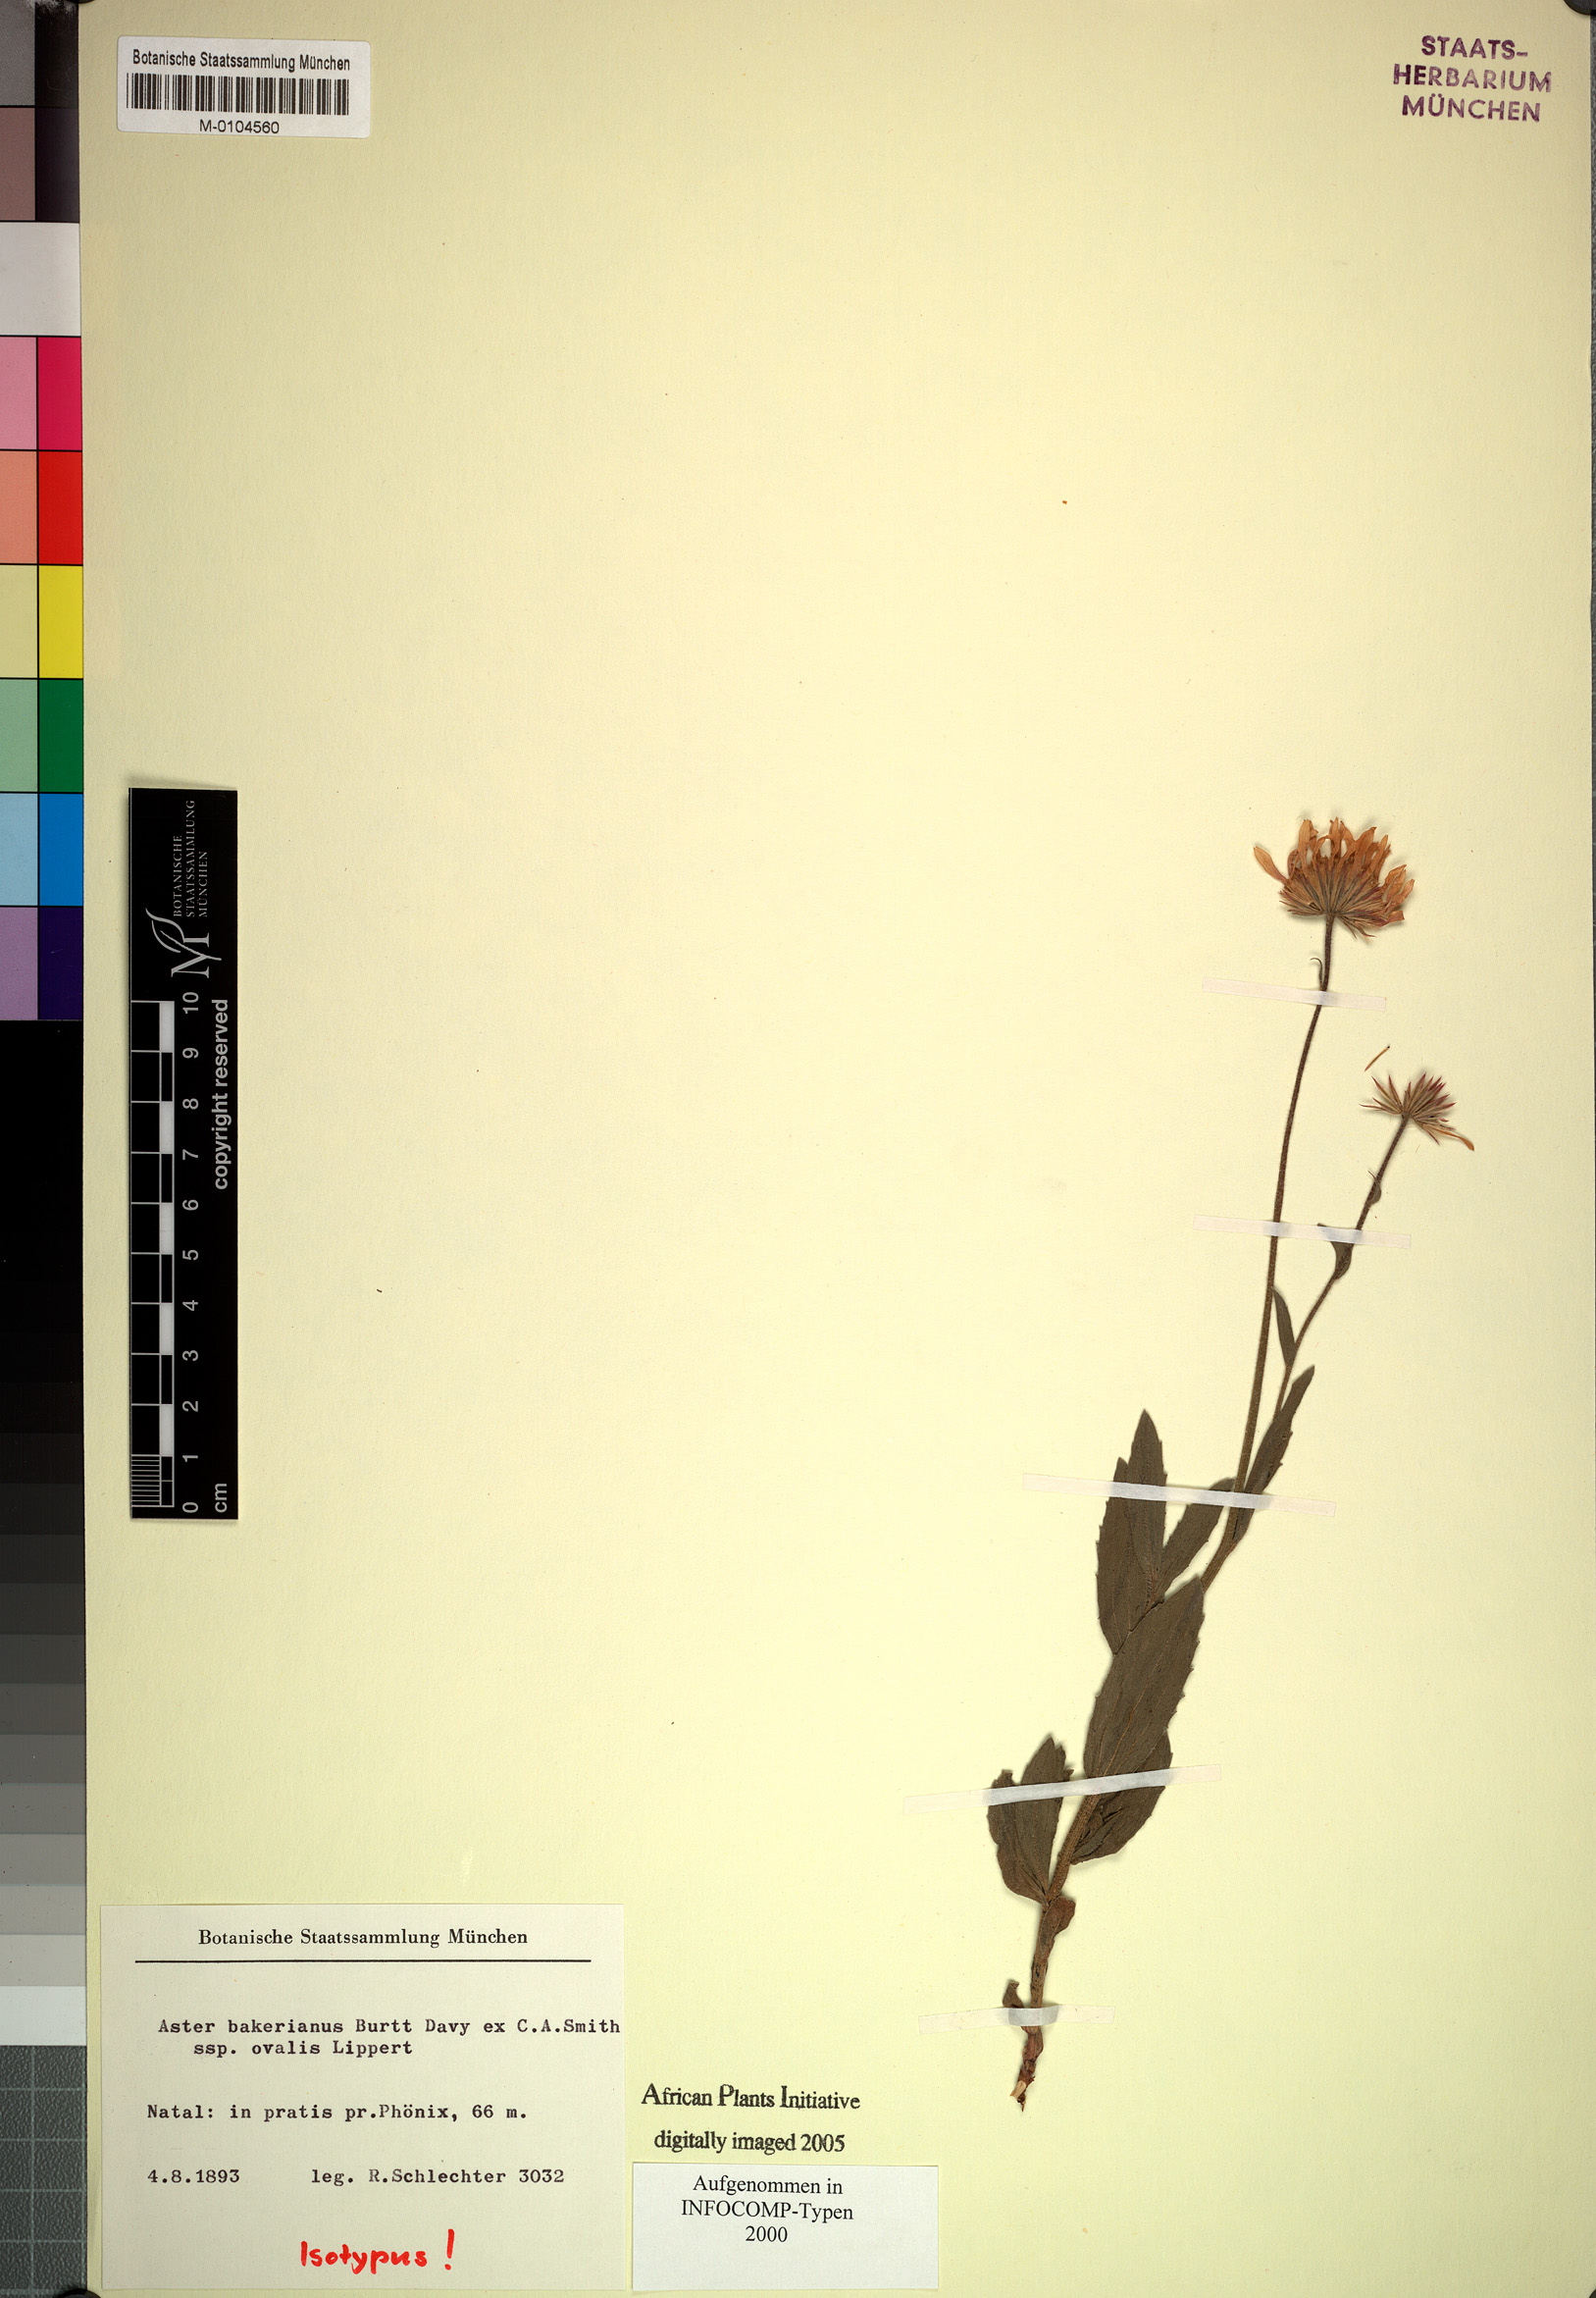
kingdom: Plantae
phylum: Tracheophyta
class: Magnoliopsida
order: Asterales
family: Asteraceae
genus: Afroaster
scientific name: Afroaster hispidus
